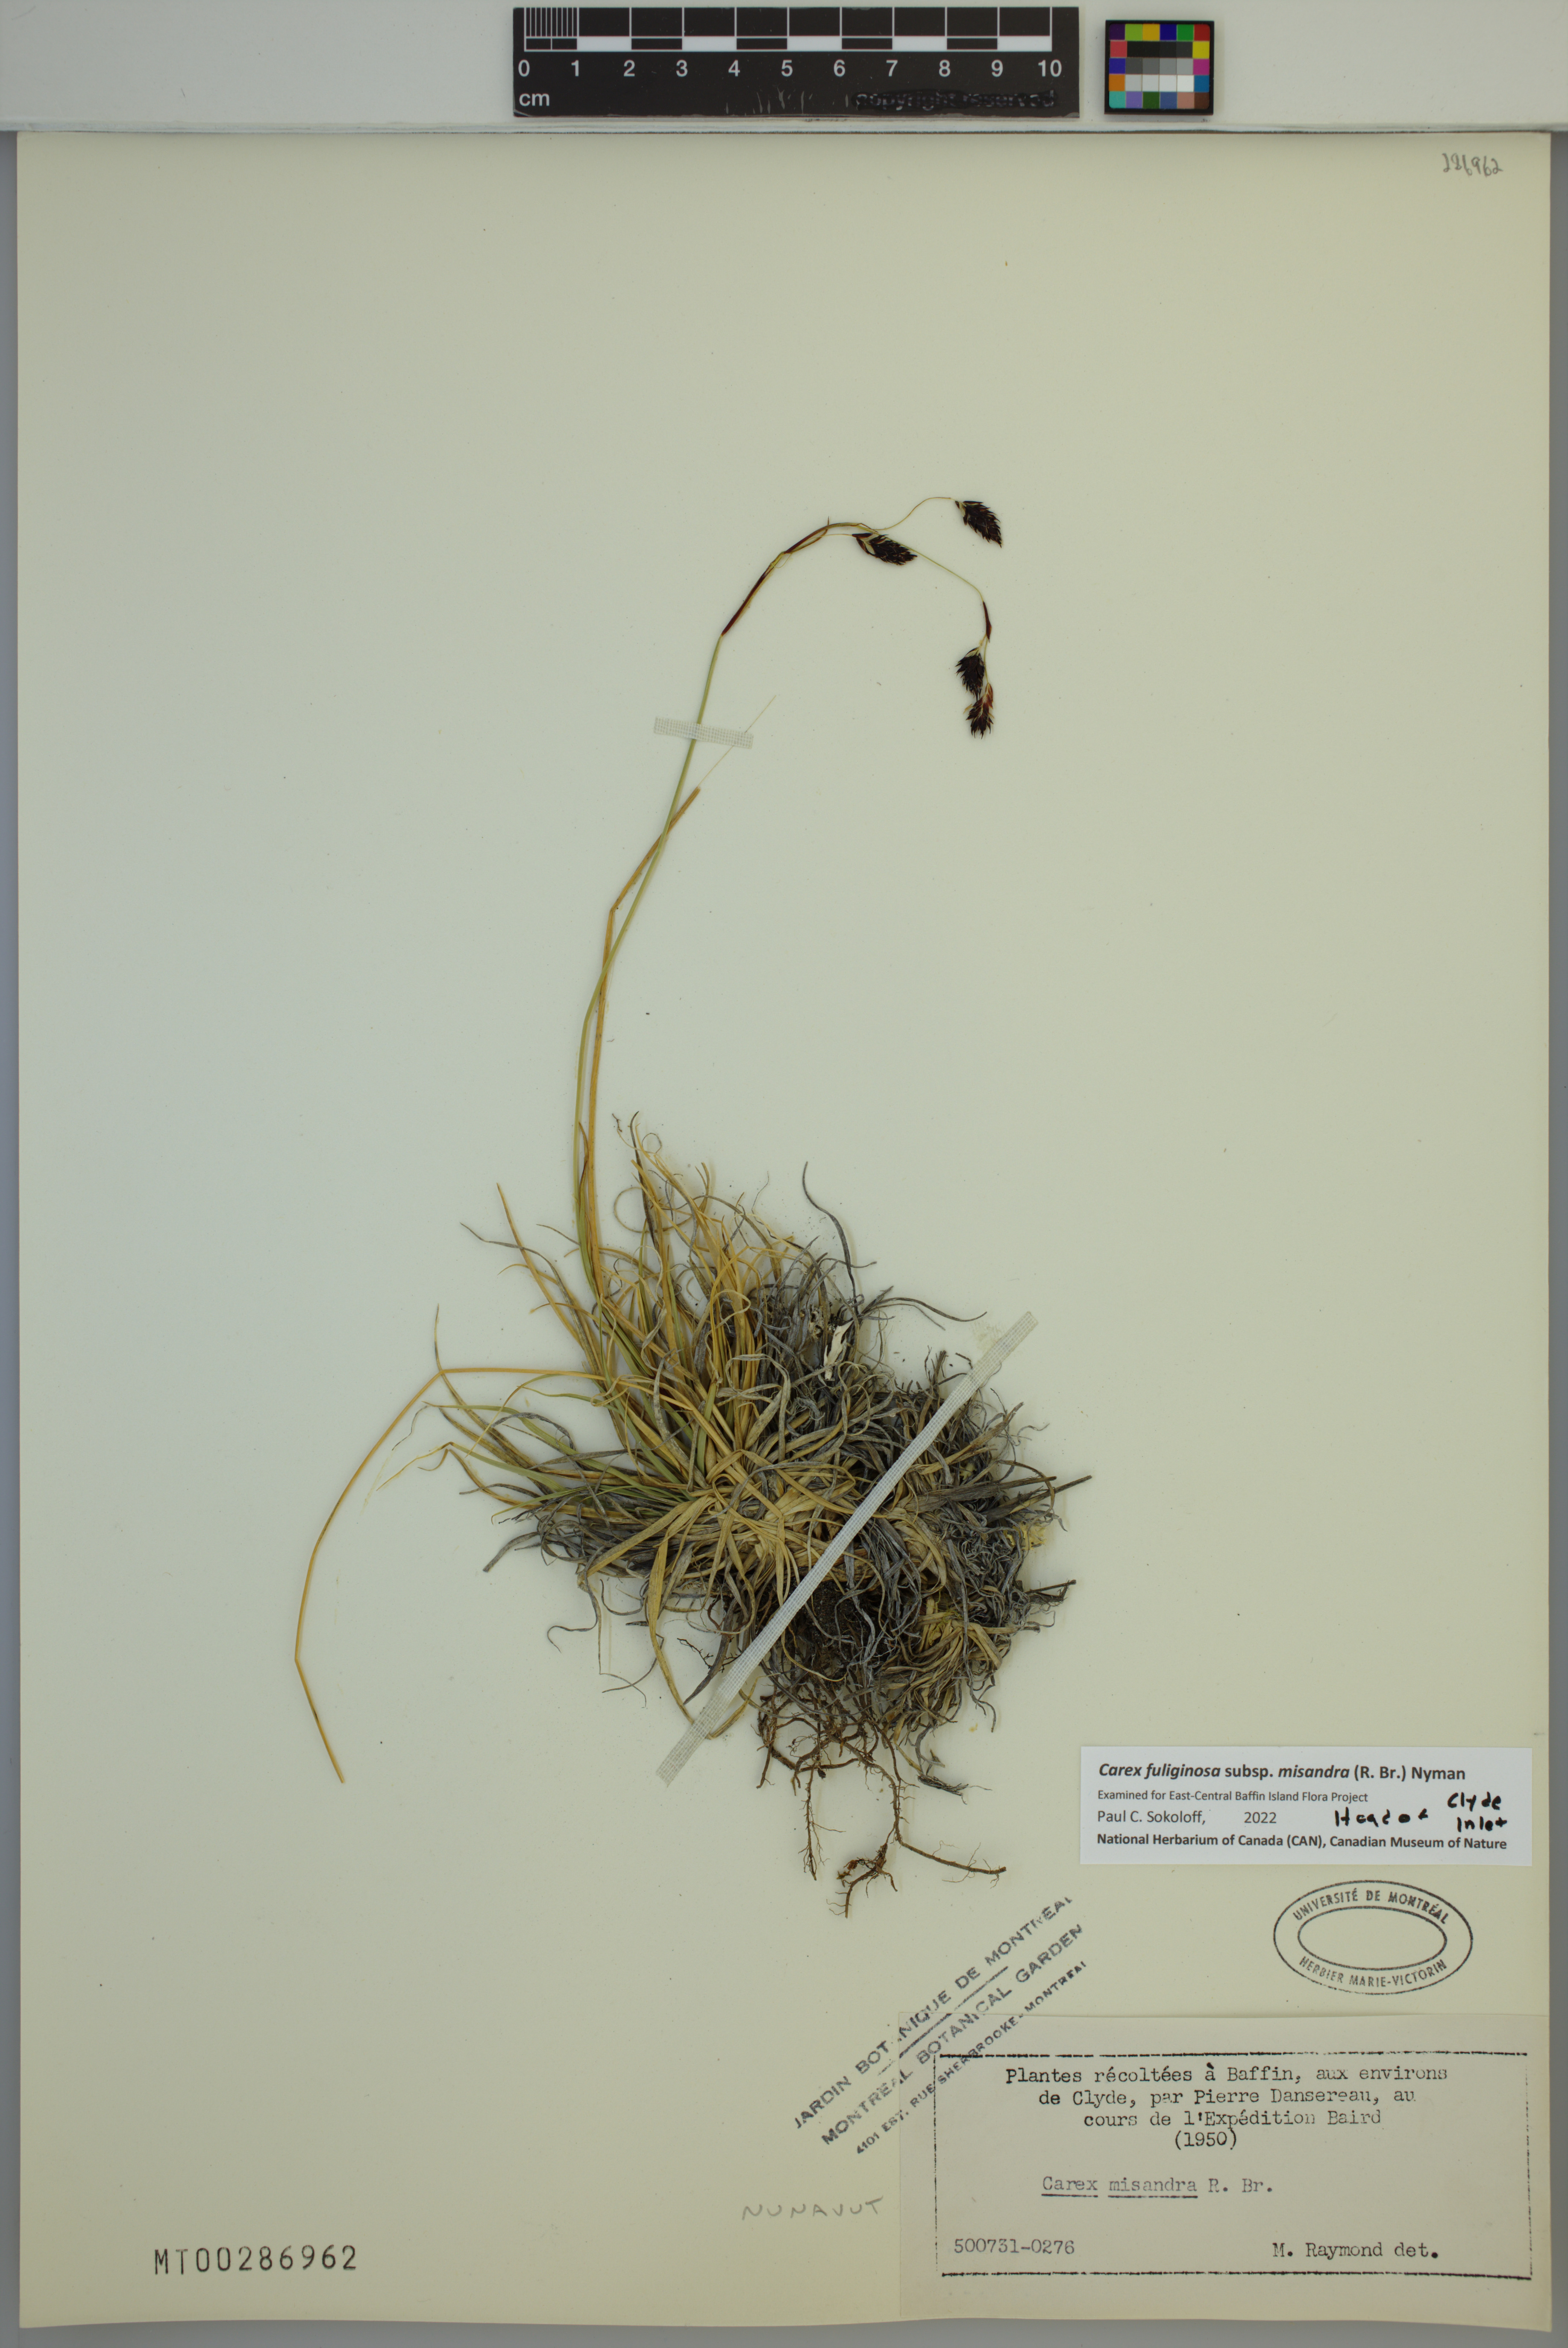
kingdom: Plantae
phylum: Tracheophyta
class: Liliopsida
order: Poales
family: Cyperaceae
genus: Carex
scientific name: Carex fuliginosa
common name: Few-flowered sedge
